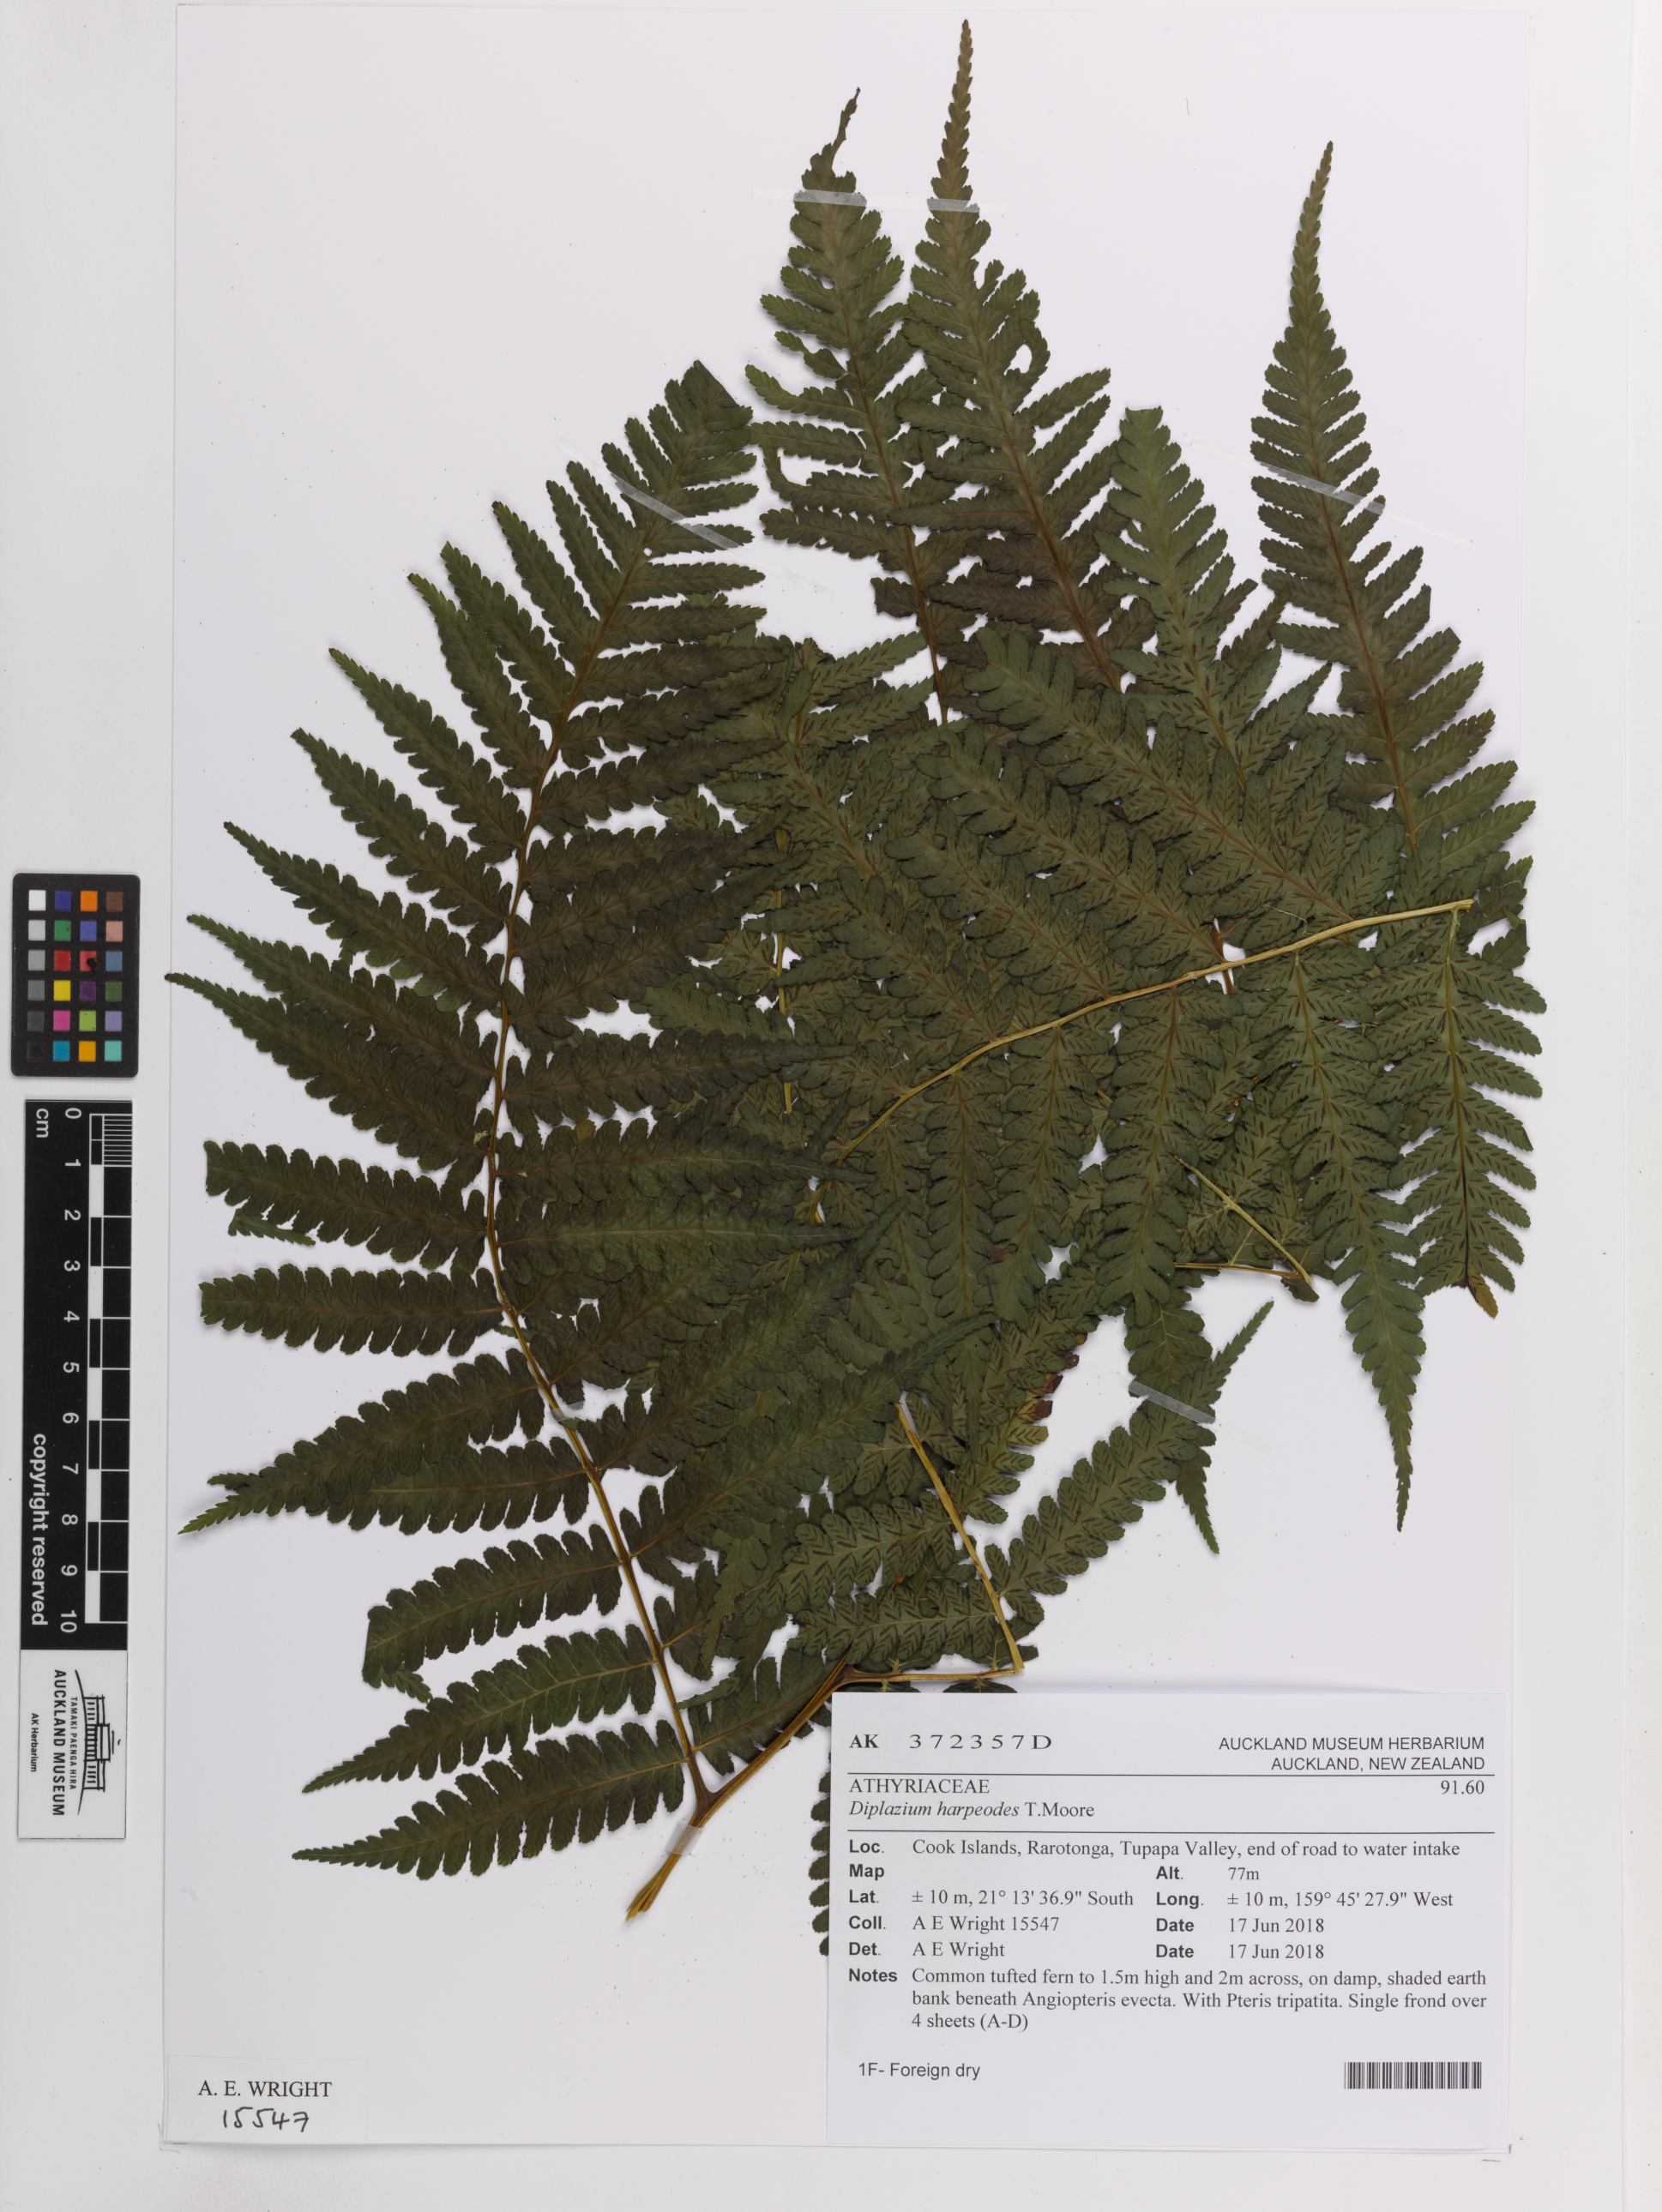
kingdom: Plantae
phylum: Tracheophyta
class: Polypodiopsida
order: Polypodiales
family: Athyriaceae
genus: Diplazium
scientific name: Diplazium harpeodes
